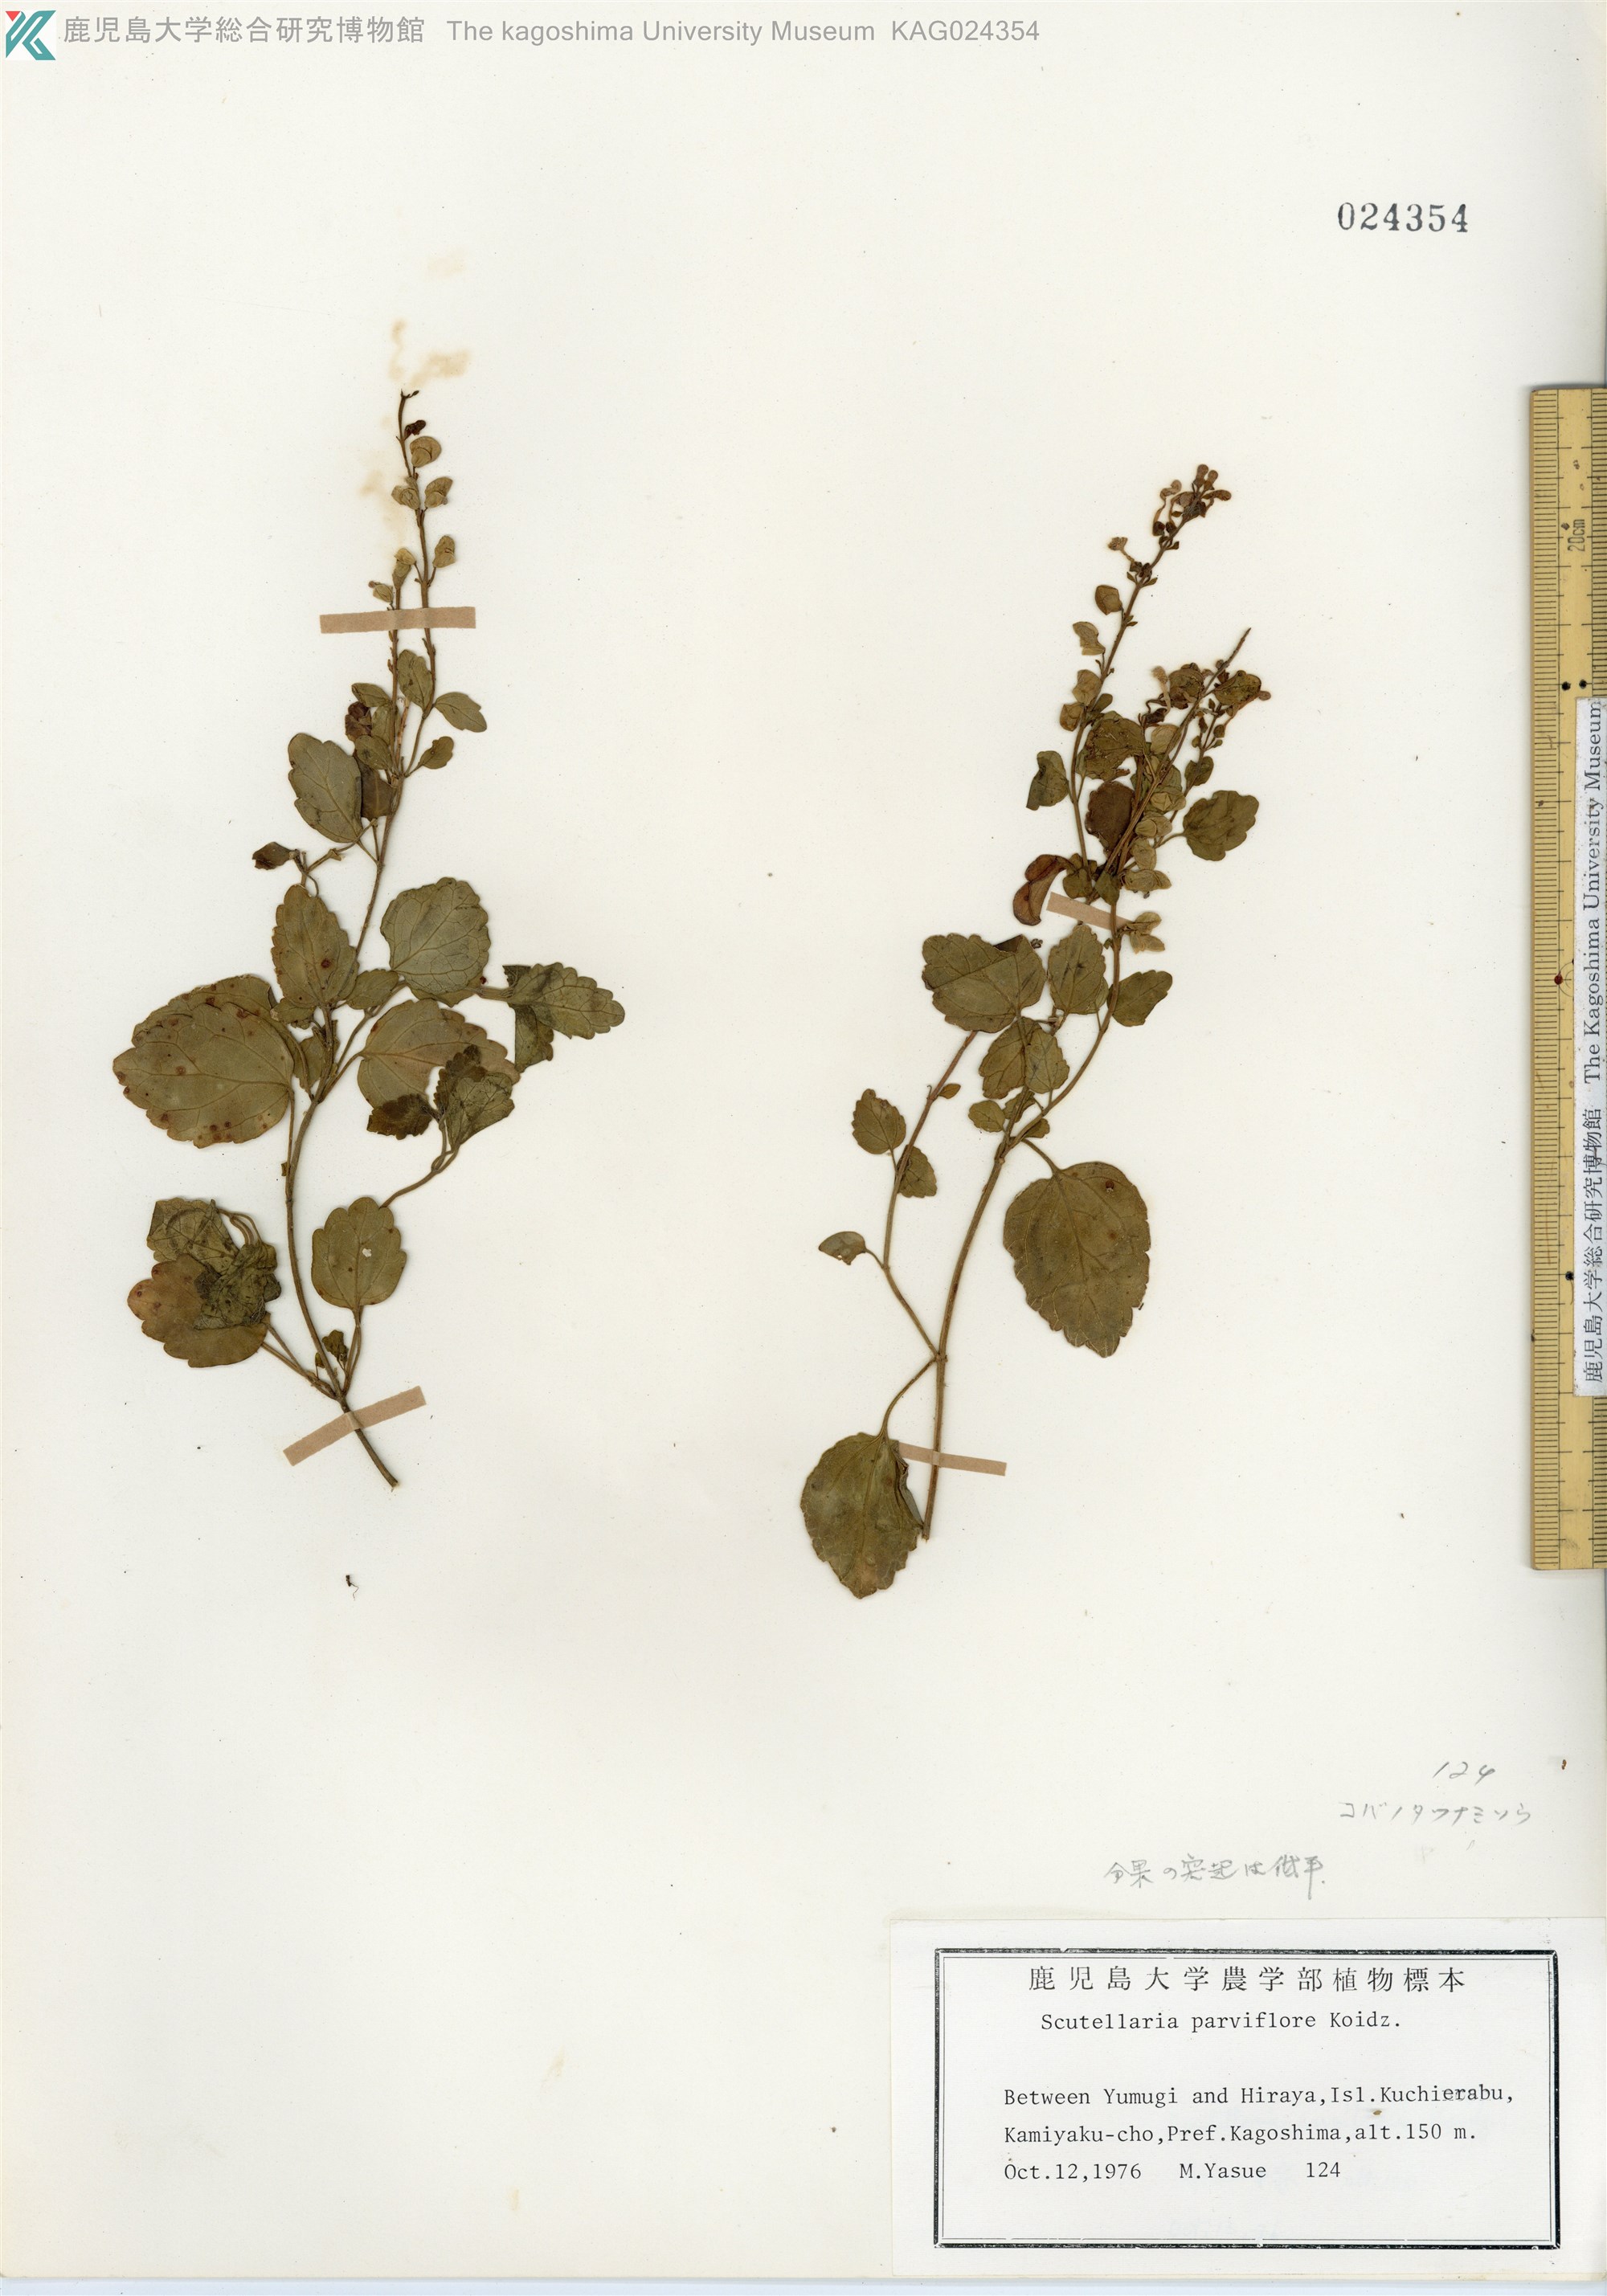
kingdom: Plantae
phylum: Tracheophyta
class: Magnoliopsida
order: Lamiales
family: Lamiaceae
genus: Scutellaria
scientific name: Scutellaria indica
